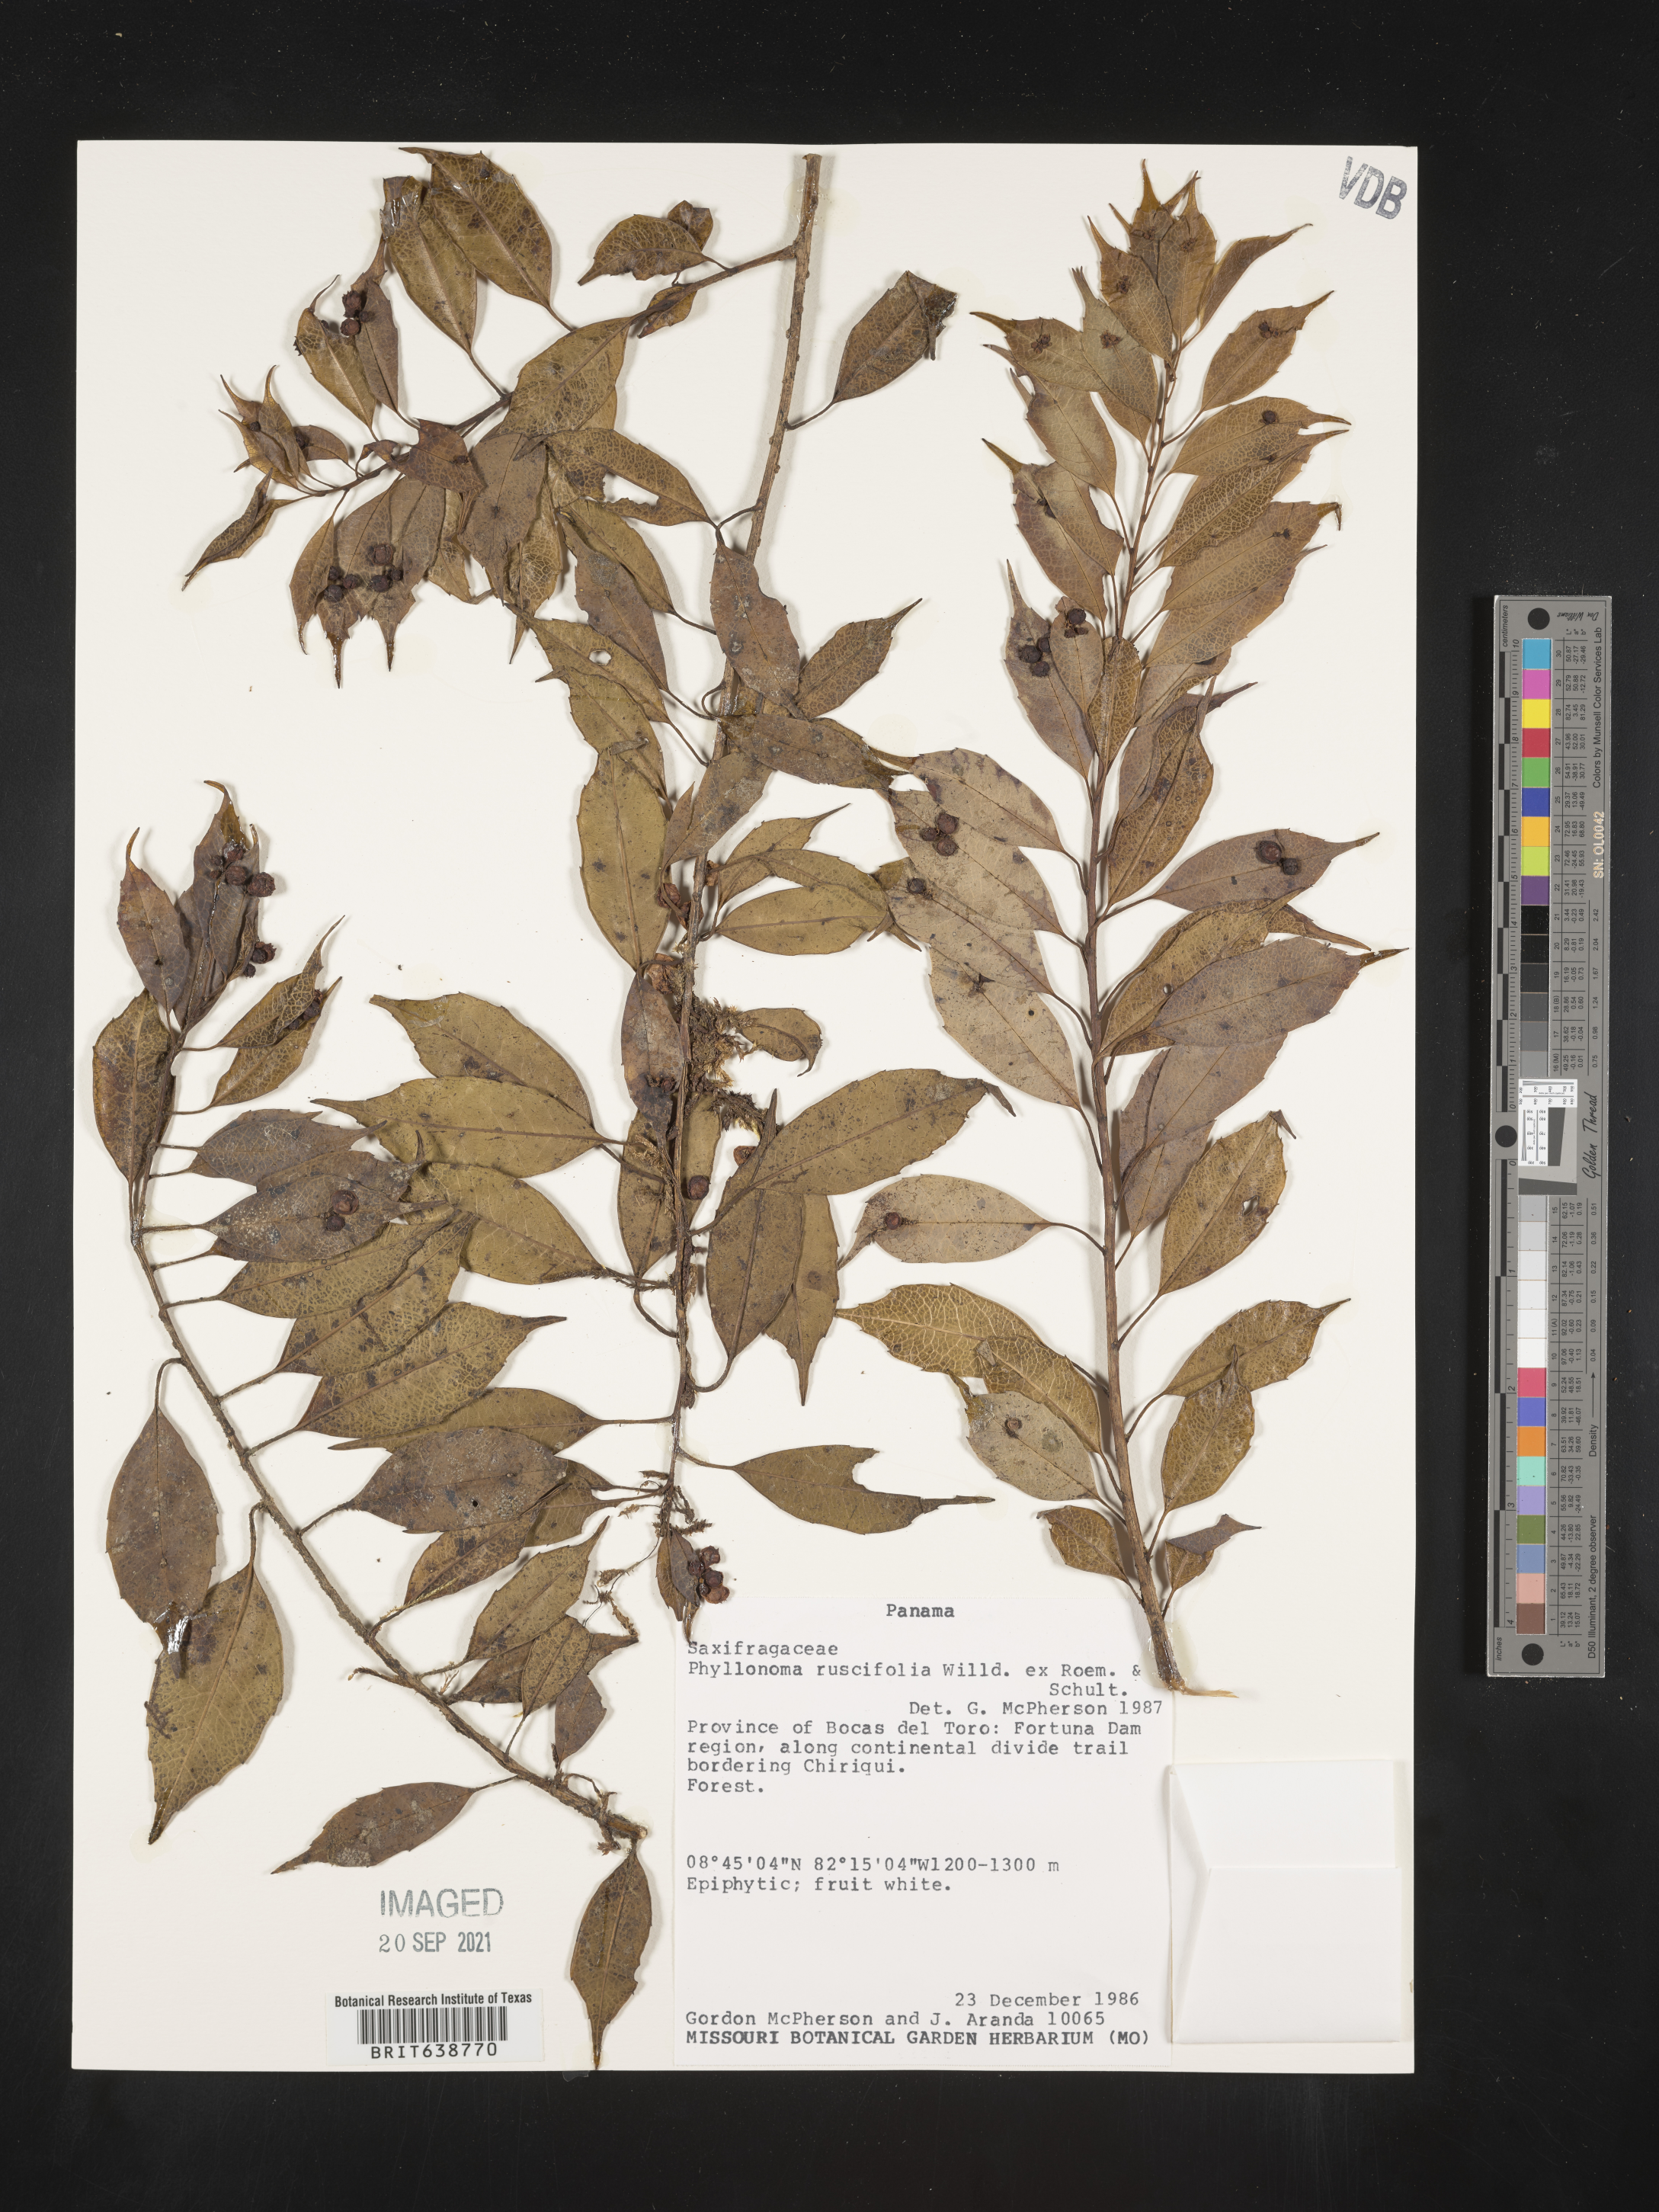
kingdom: Plantae
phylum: Tracheophyta
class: Magnoliopsida
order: Aquifoliales
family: Phyllonomaceae
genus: Phyllonoma
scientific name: Phyllonoma
